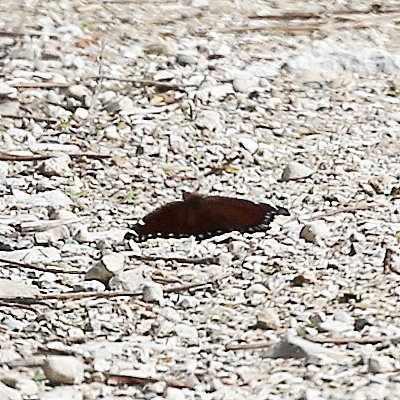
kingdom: Animalia
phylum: Arthropoda
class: Insecta
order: Lepidoptera
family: Nymphalidae
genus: Nymphalis
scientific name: Nymphalis antiopa
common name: Mourning Cloak
